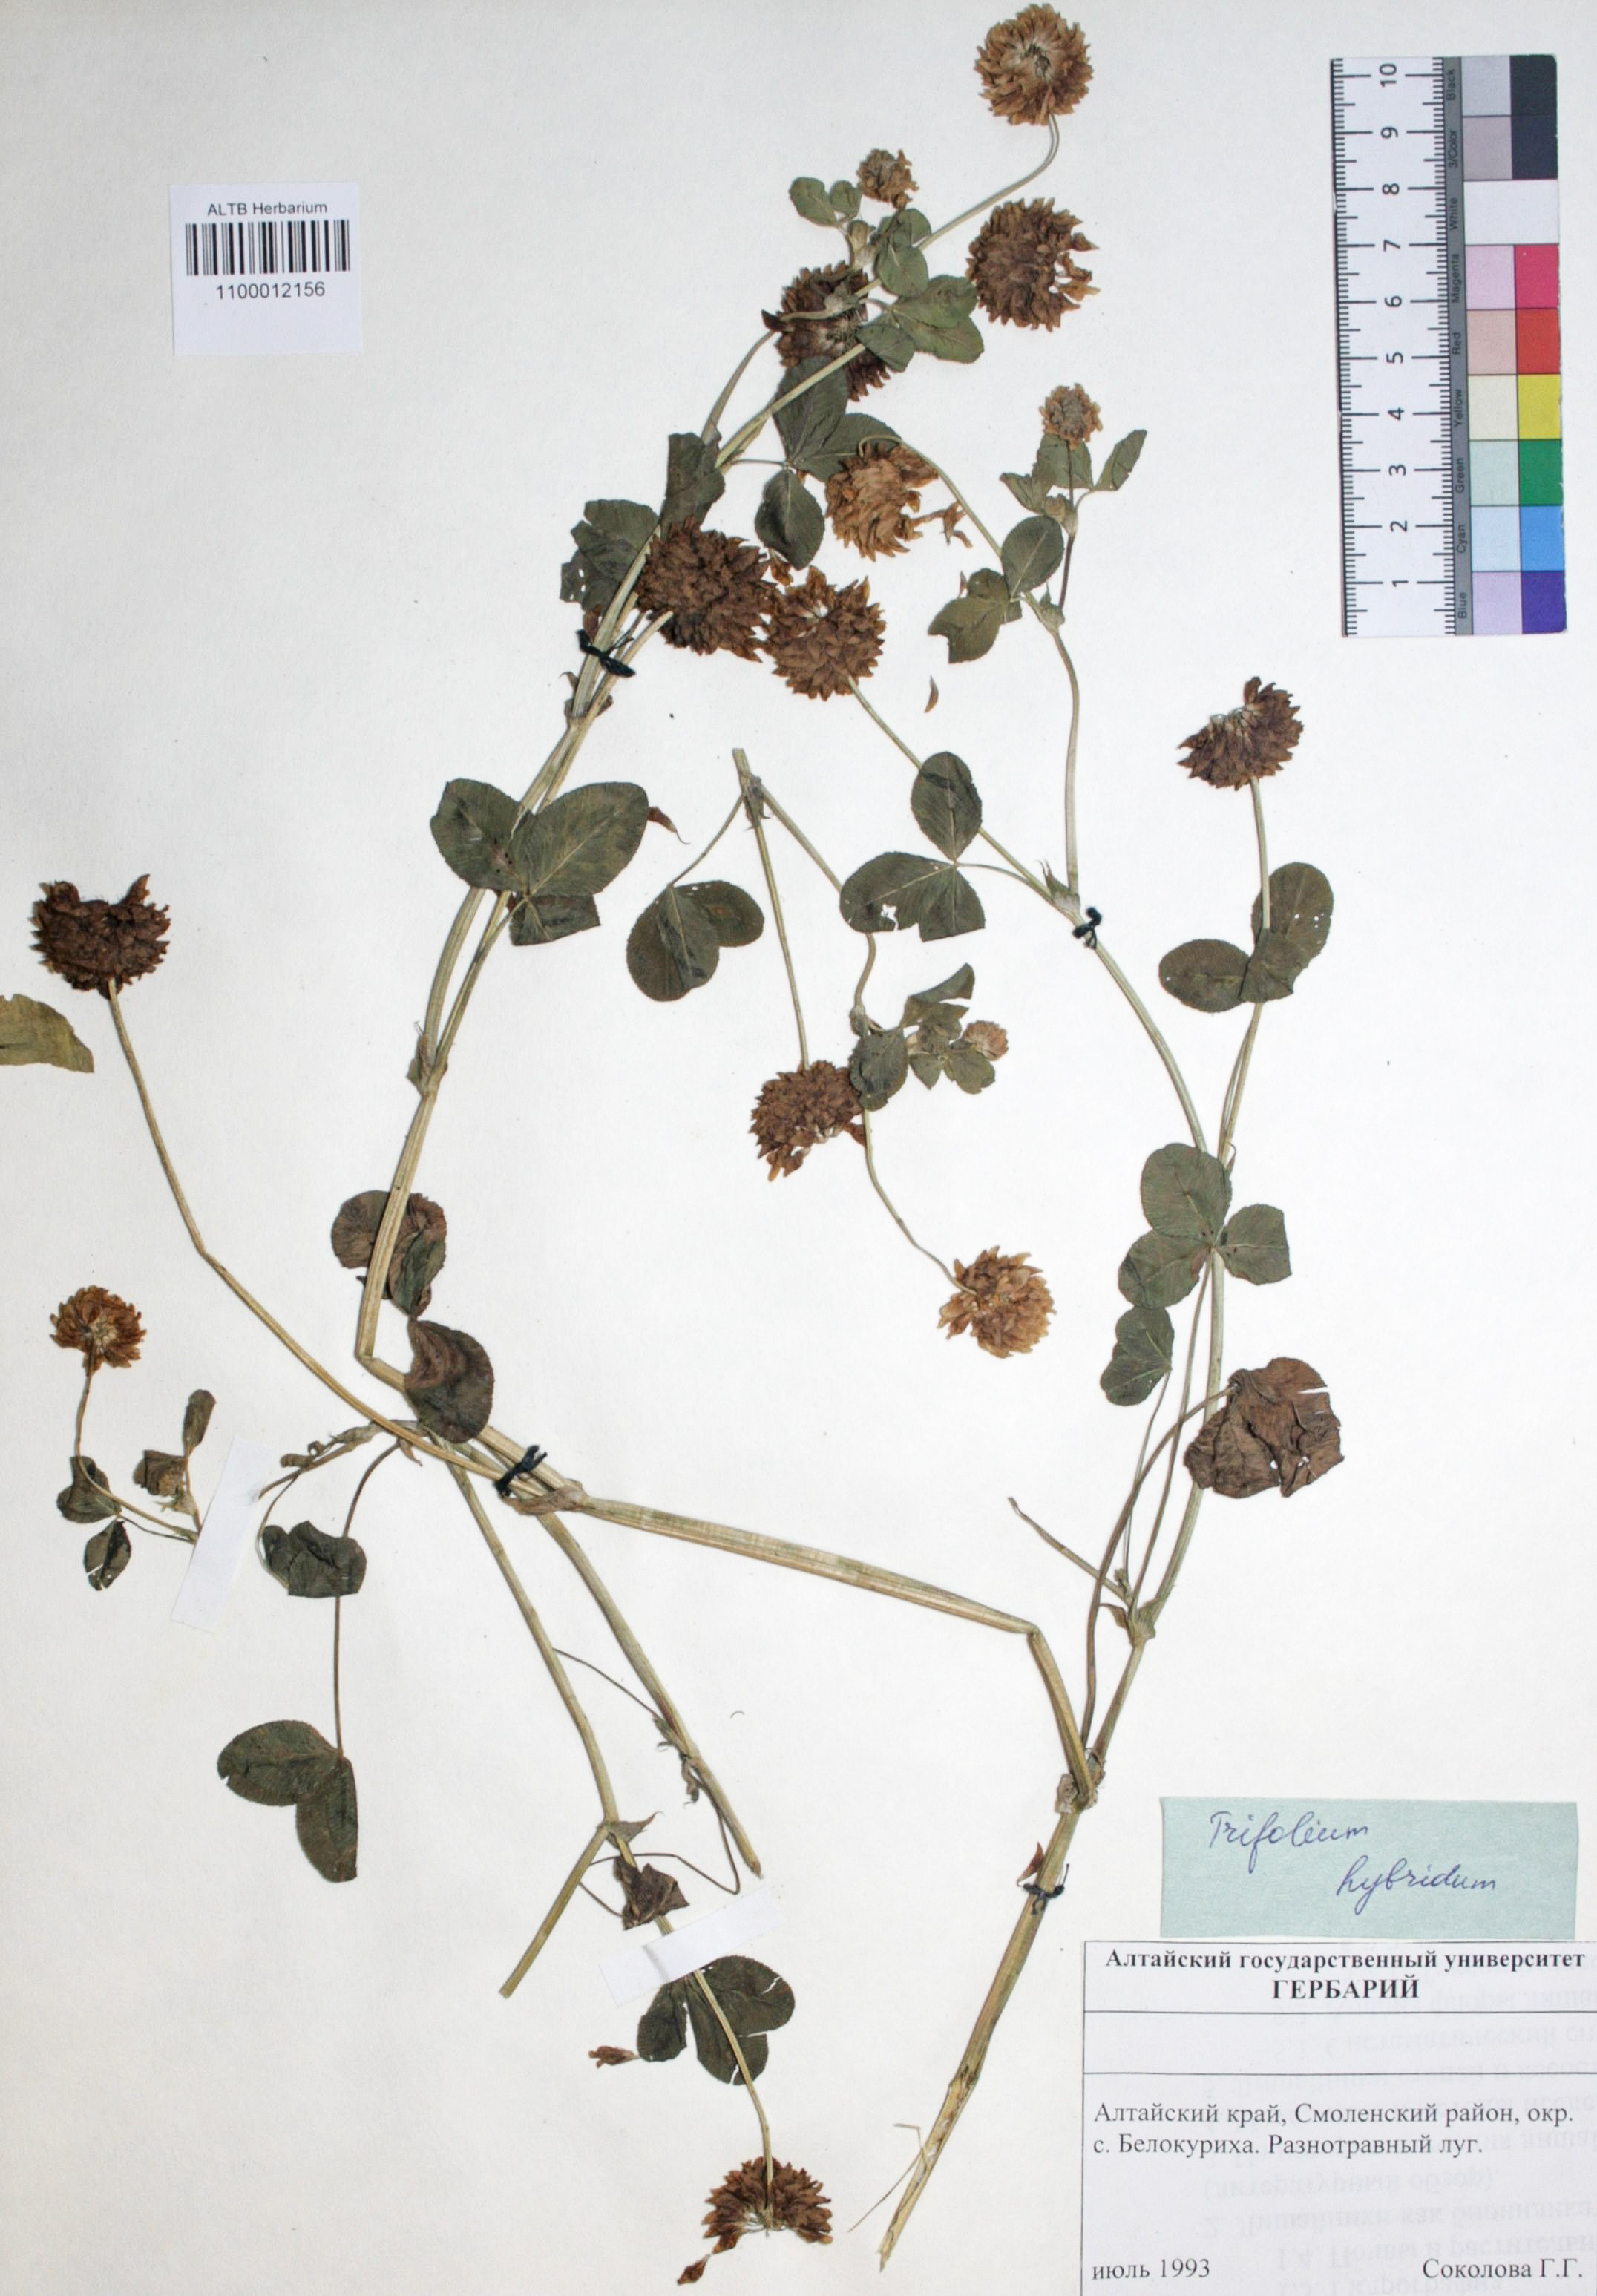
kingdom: Plantae
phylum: Tracheophyta
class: Magnoliopsida
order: Fabales
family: Fabaceae
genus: Trifolium
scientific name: Trifolium hybridum
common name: Alsike clover
